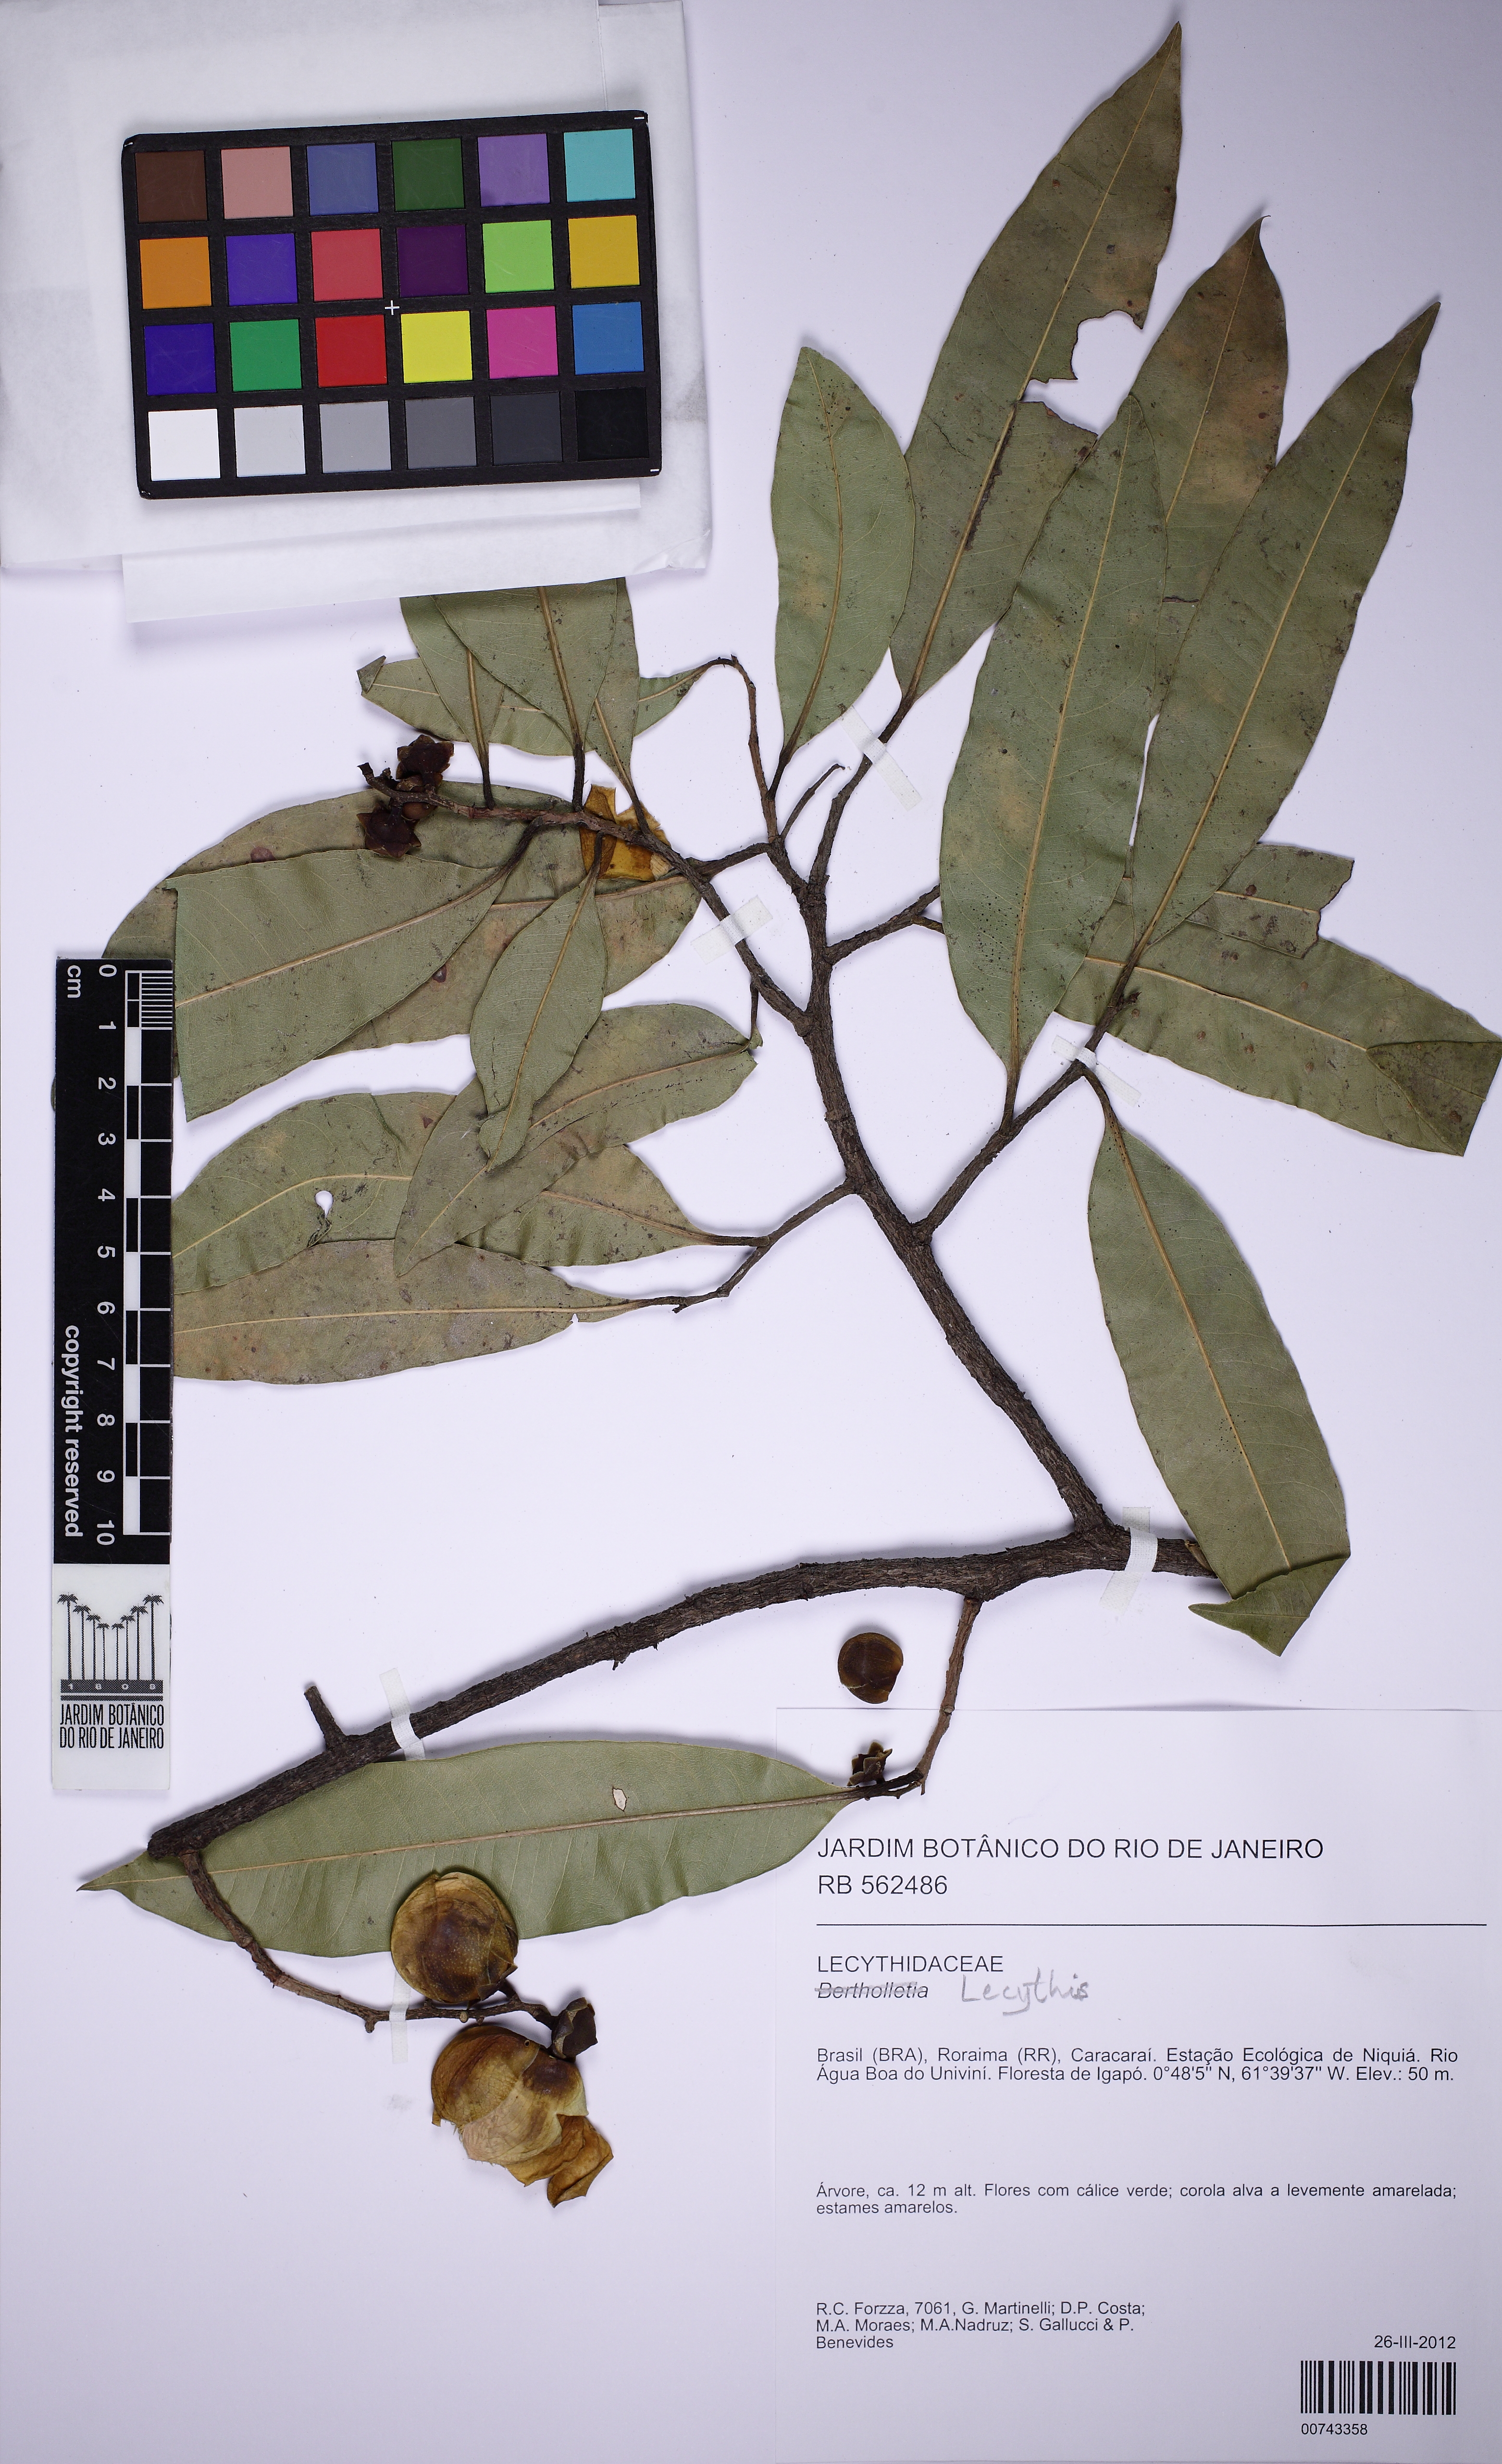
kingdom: Plantae
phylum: Tracheophyta
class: Magnoliopsida
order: Ericales
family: Lecythidaceae
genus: Lecythis
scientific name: Lecythis
